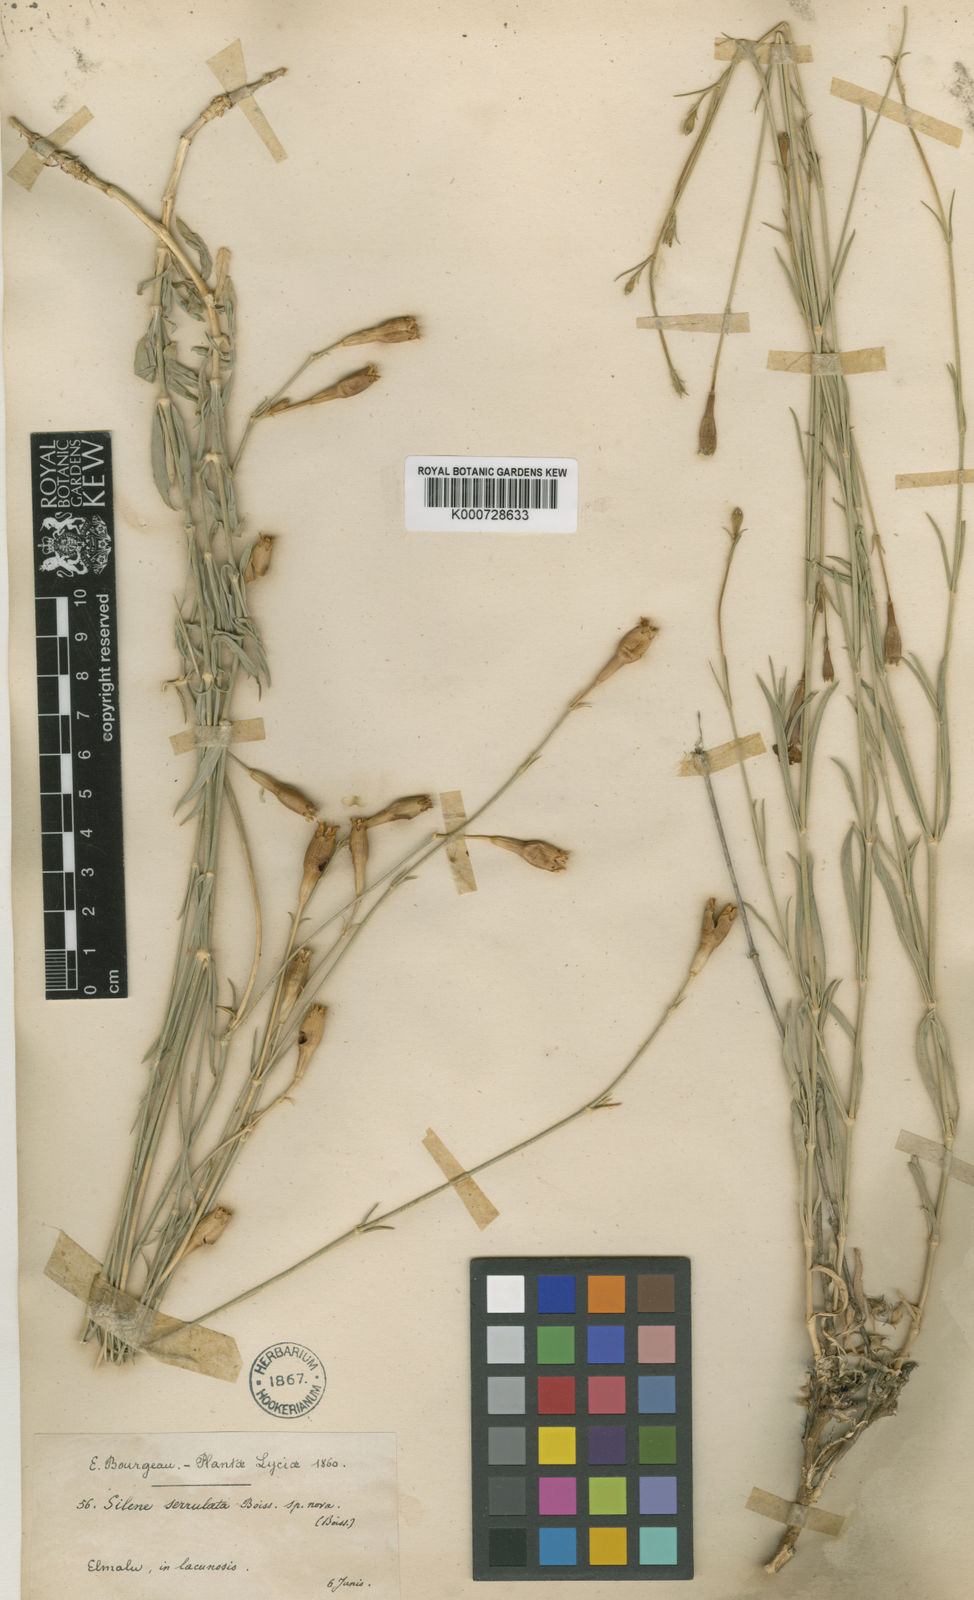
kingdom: Plantae
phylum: Tracheophyta
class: Magnoliopsida
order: Caryophyllales
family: Caryophyllaceae
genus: Silene
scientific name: Silene armena
